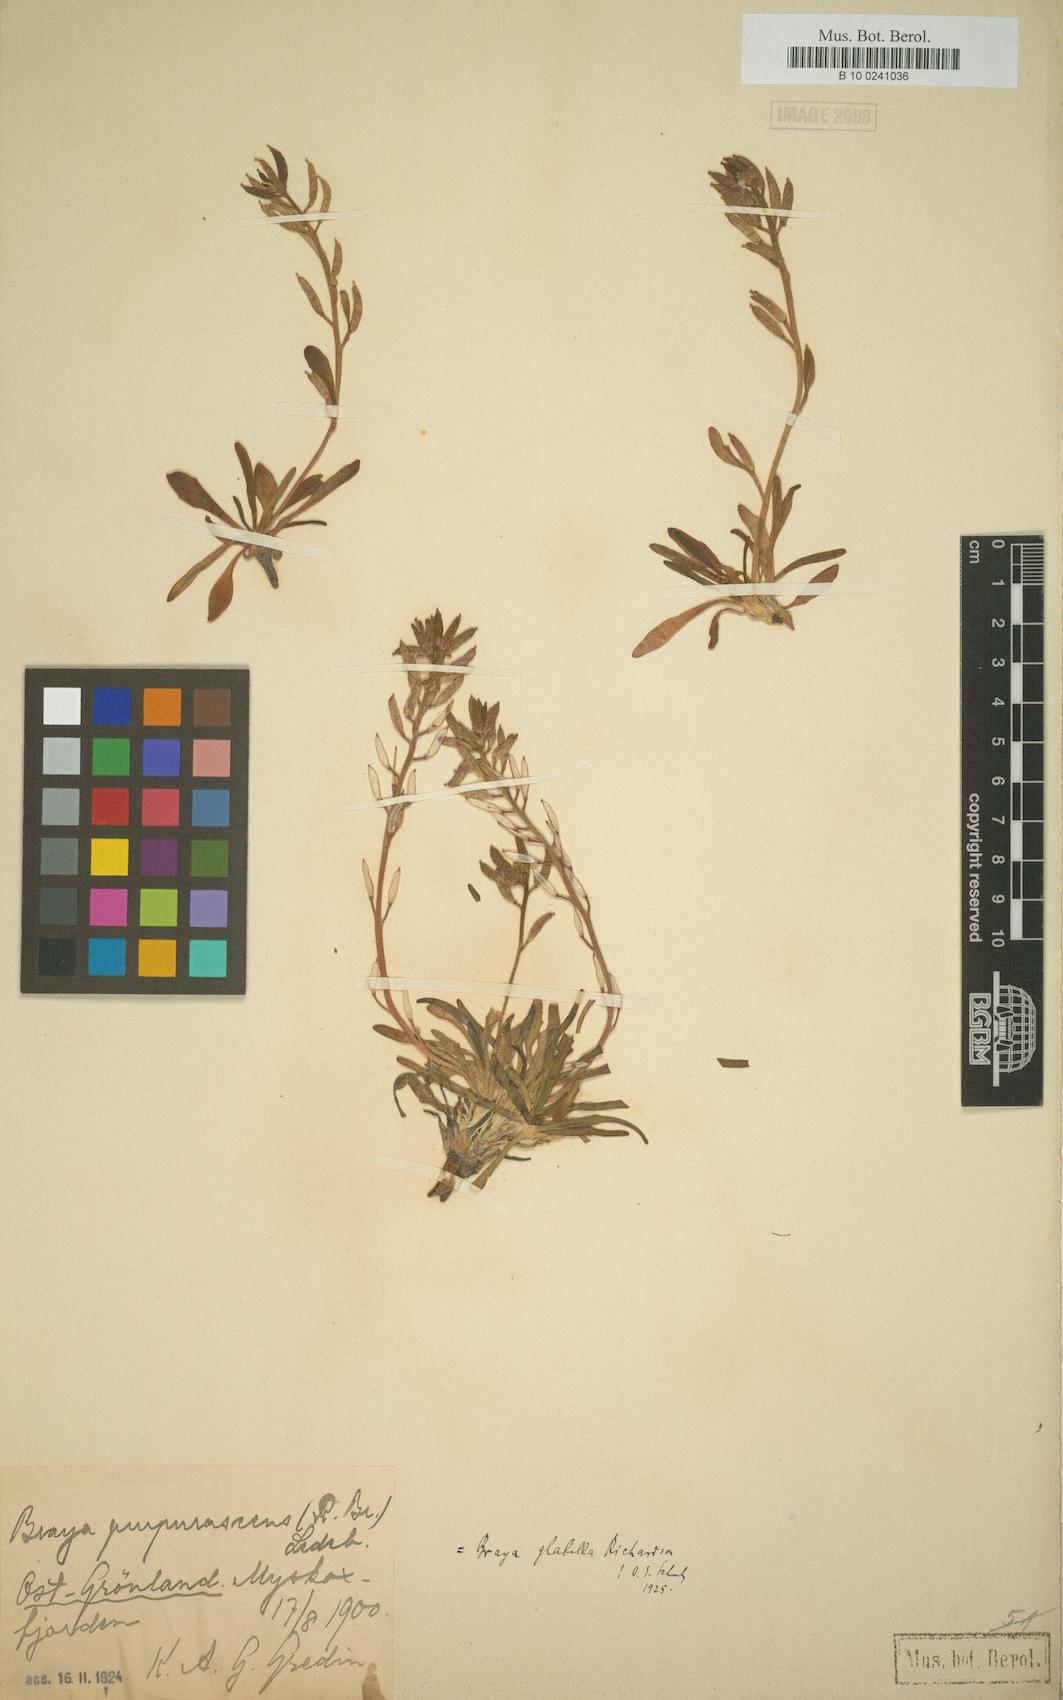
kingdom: Plantae
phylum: Tracheophyta
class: Magnoliopsida
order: Brassicales
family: Brassicaceae
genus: Braya
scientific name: Braya glabella
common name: Smooth braya
